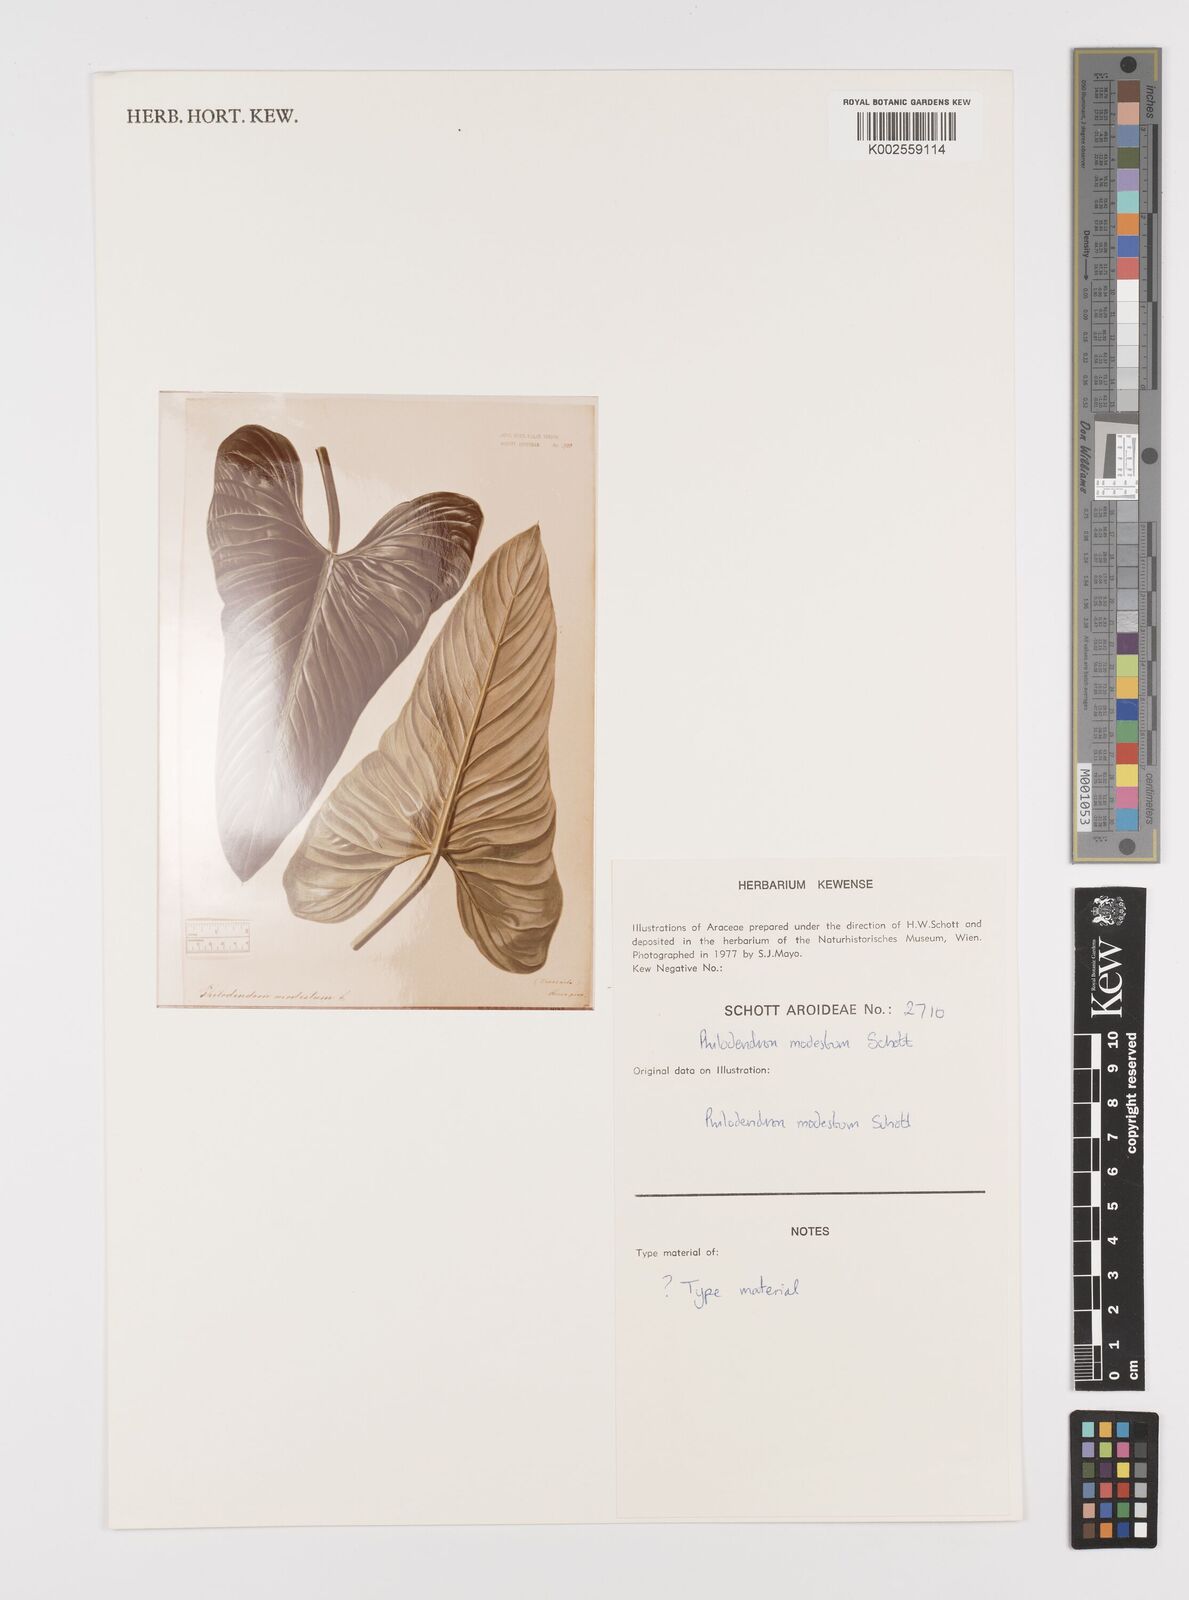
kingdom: Plantae
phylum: Tracheophyta
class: Liliopsida
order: Alismatales
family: Araceae
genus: Philodendron
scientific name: Philodendron modestum
